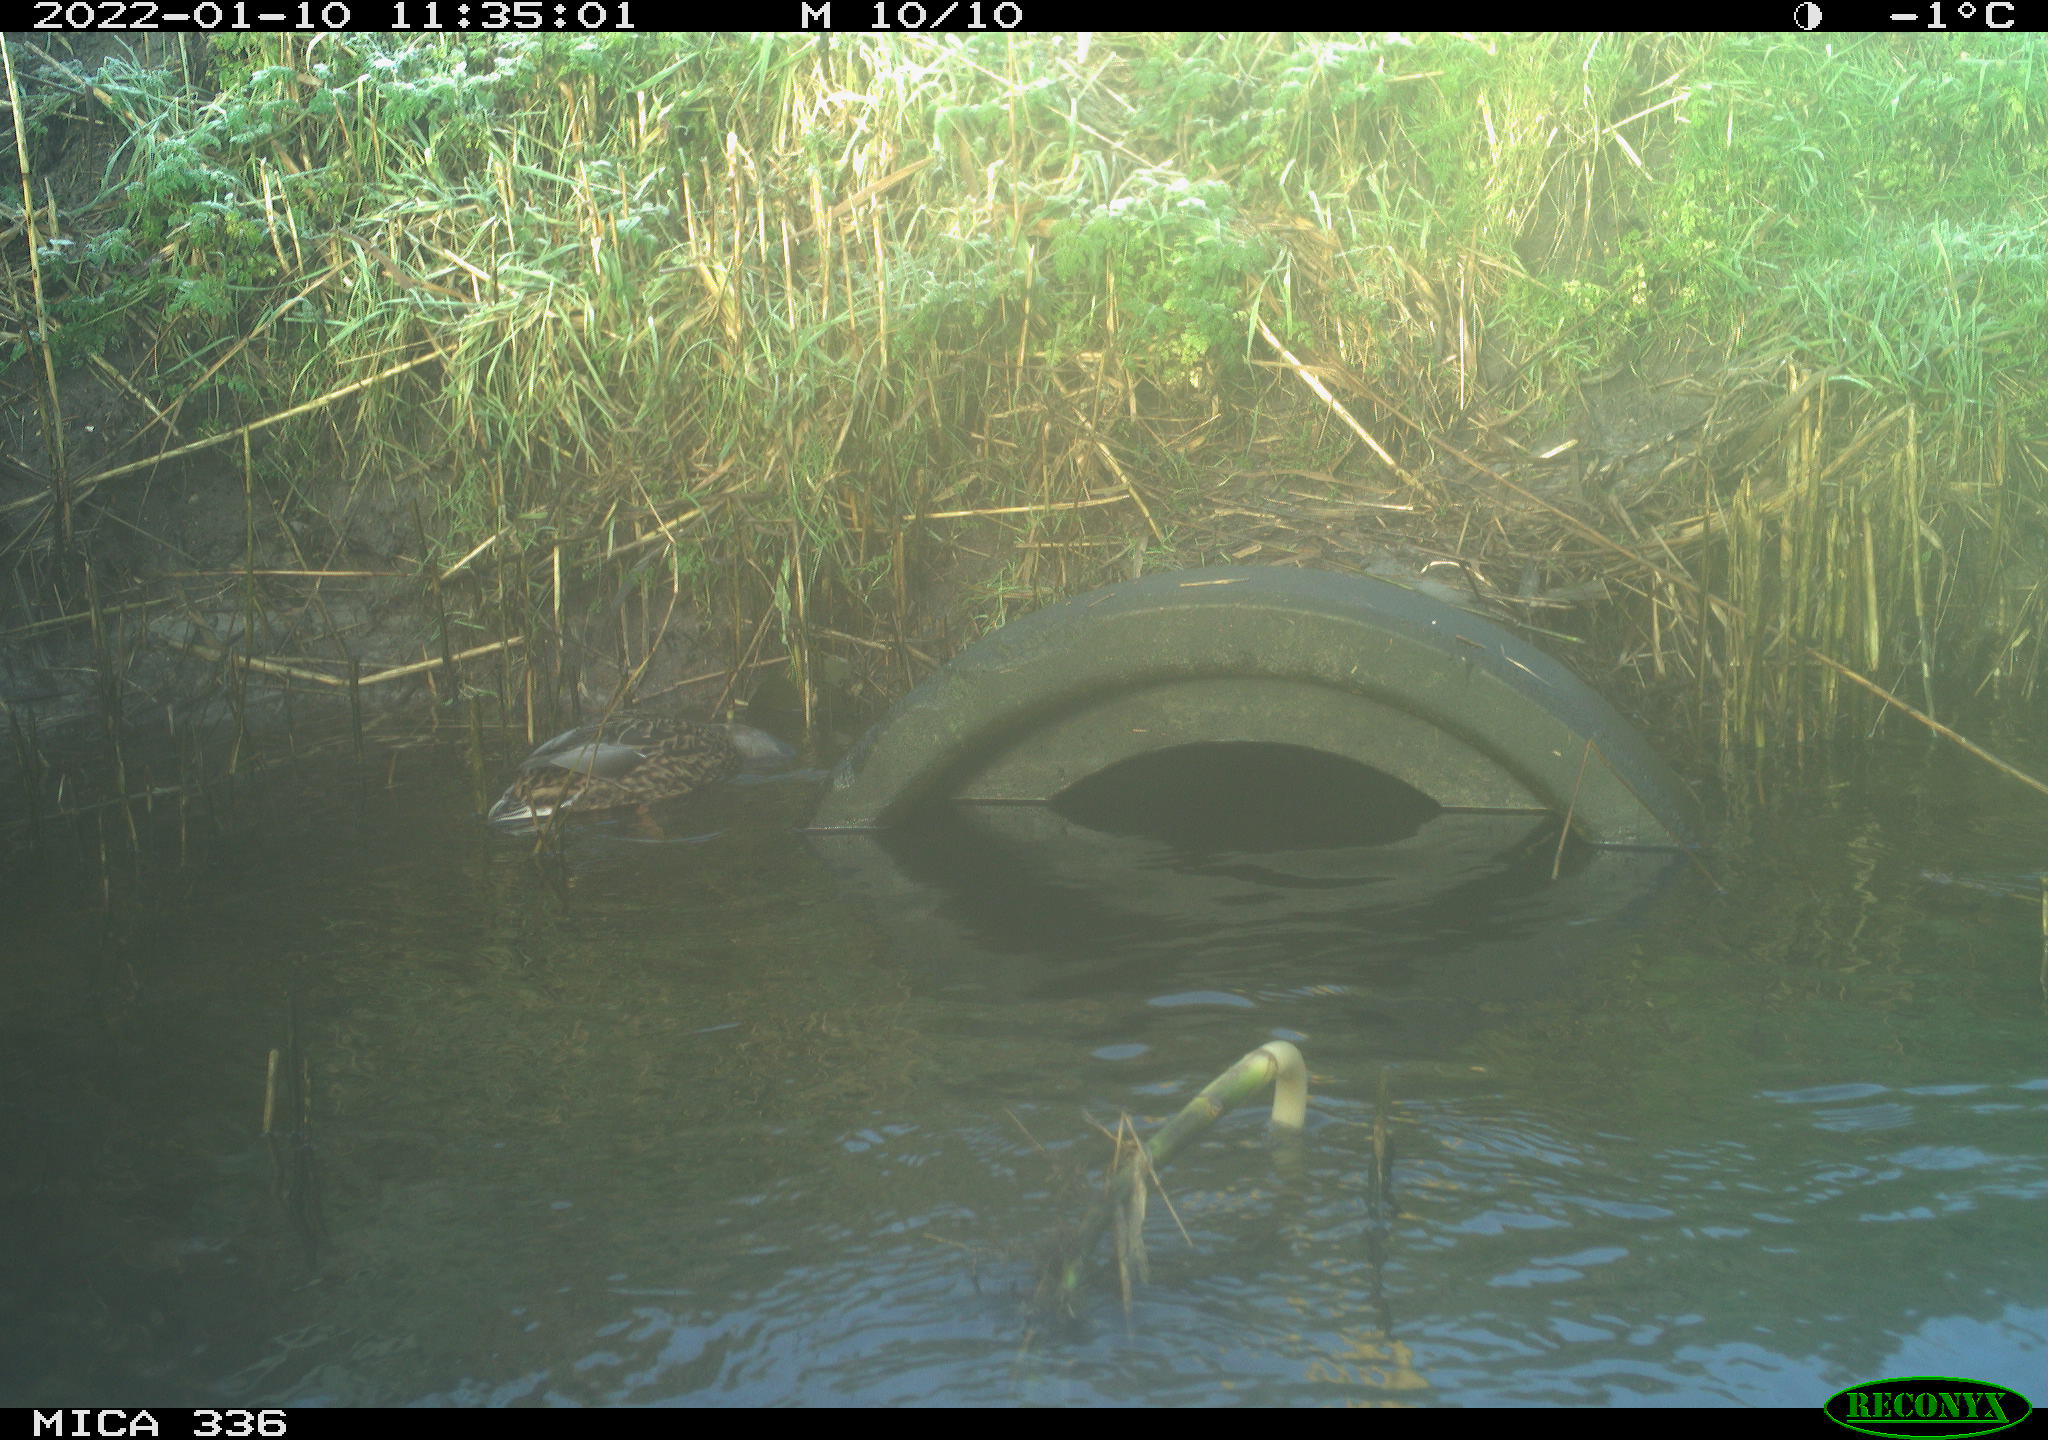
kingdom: Animalia
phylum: Chordata
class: Aves
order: Anseriformes
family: Anatidae
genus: Anas
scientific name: Anas platyrhynchos
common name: Mallard
